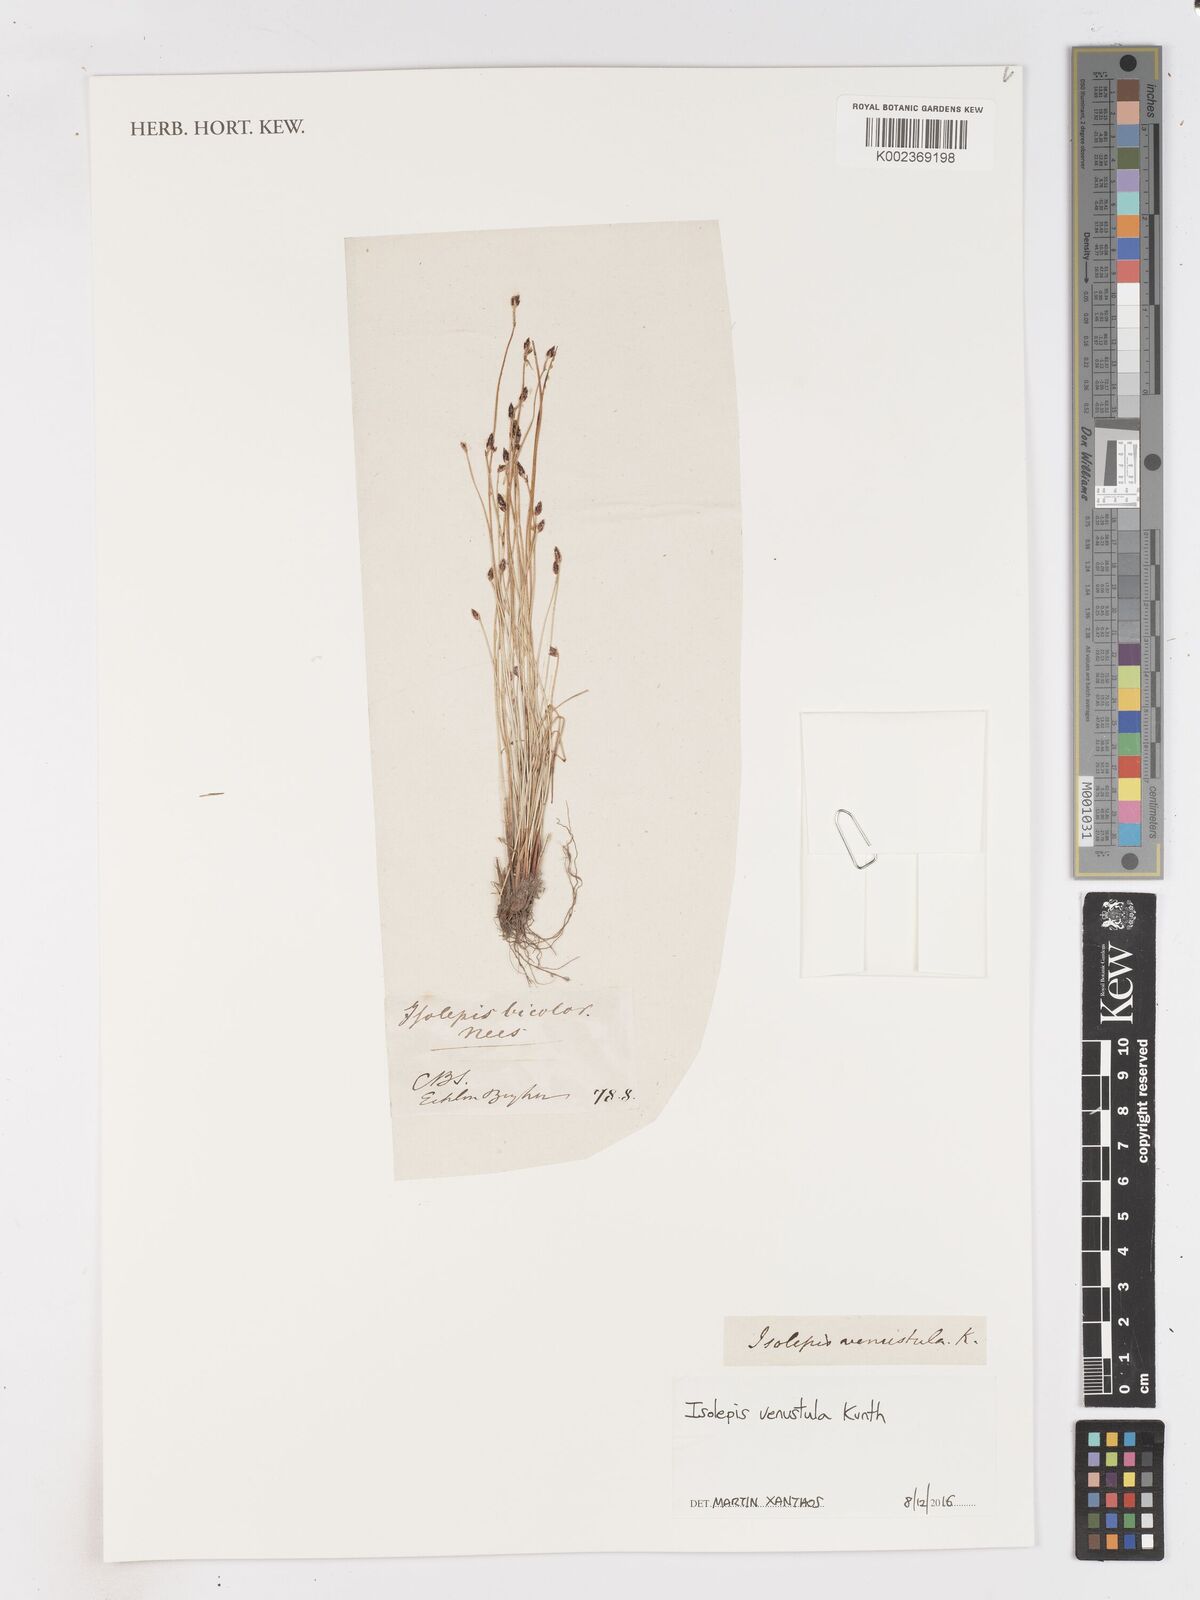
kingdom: Plantae
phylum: Tracheophyta
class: Liliopsida
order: Poales
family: Cyperaceae
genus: Isolepis
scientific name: Isolepis venustula
